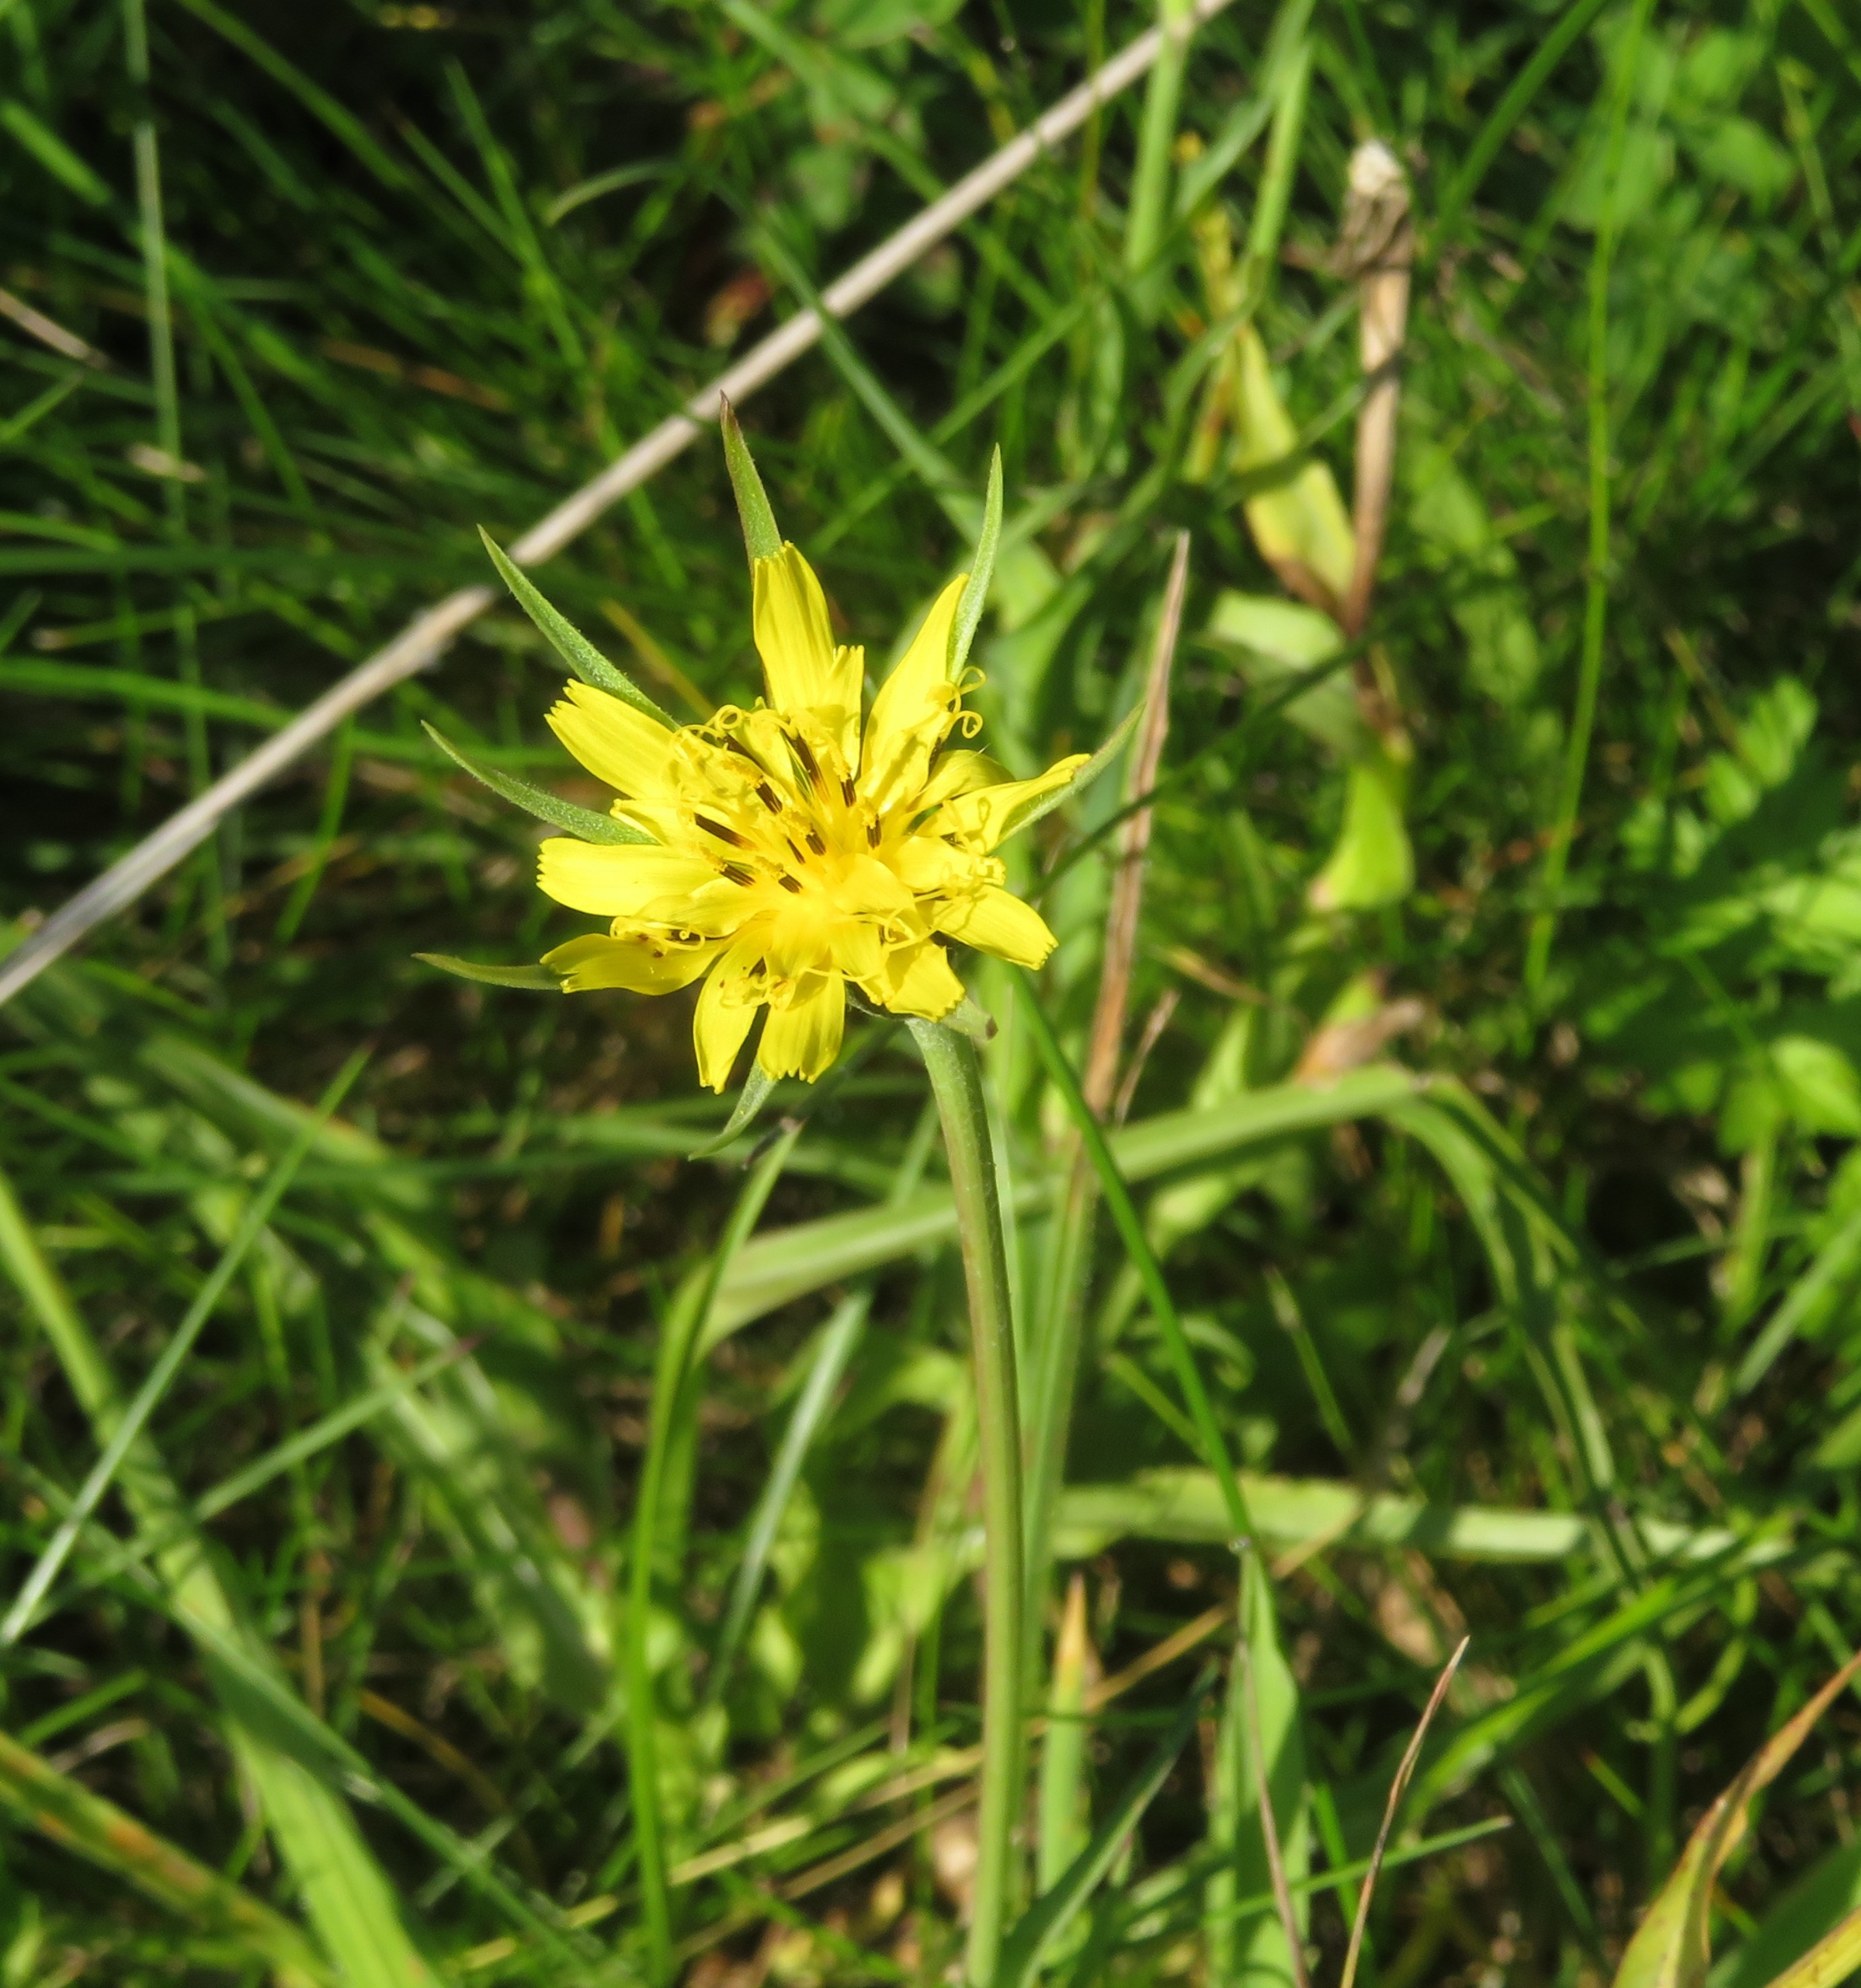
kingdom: Plantae
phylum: Tracheophyta
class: Magnoliopsida
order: Asterales
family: Asteraceae
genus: Tragopogon
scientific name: Tragopogon minor
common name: Småkronet gedeskæg
